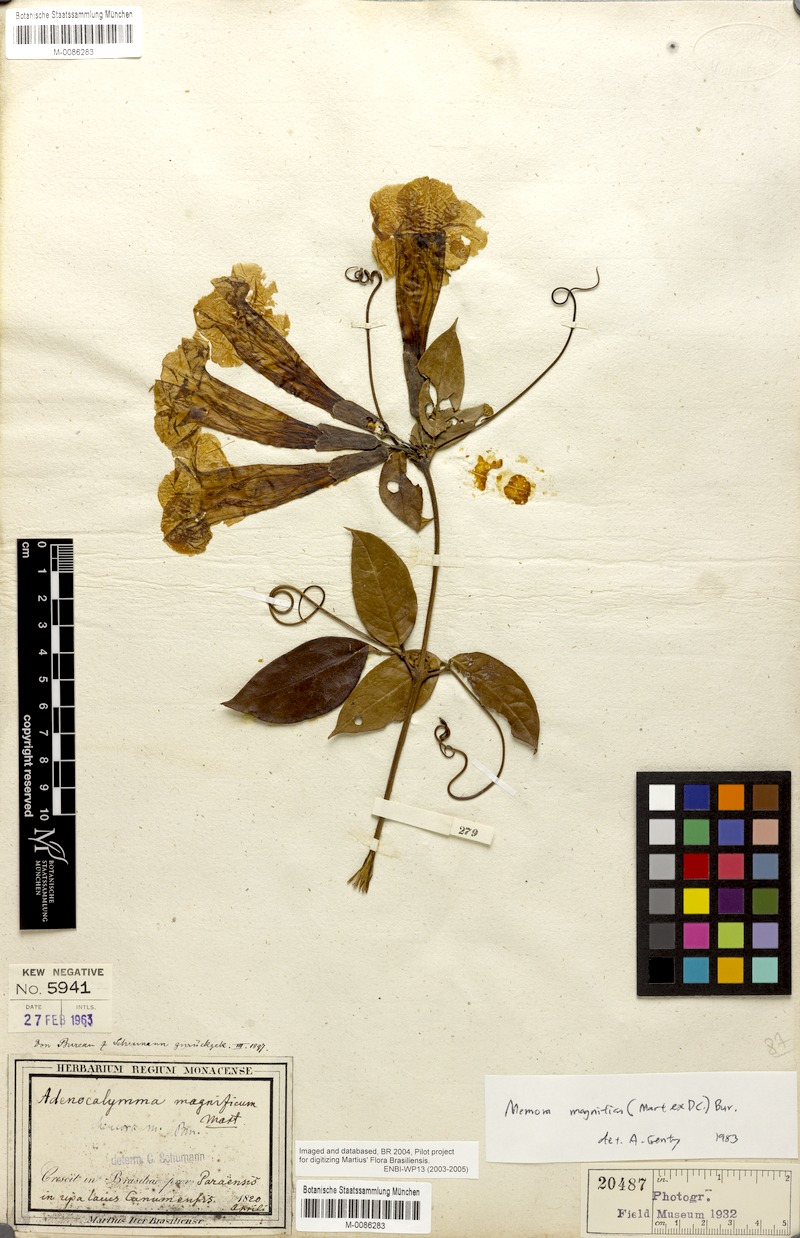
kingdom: Plantae
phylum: Tracheophyta
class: Magnoliopsida
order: Lamiales
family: Bignoniaceae
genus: Adenocalymma
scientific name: Adenocalymma magnificum
